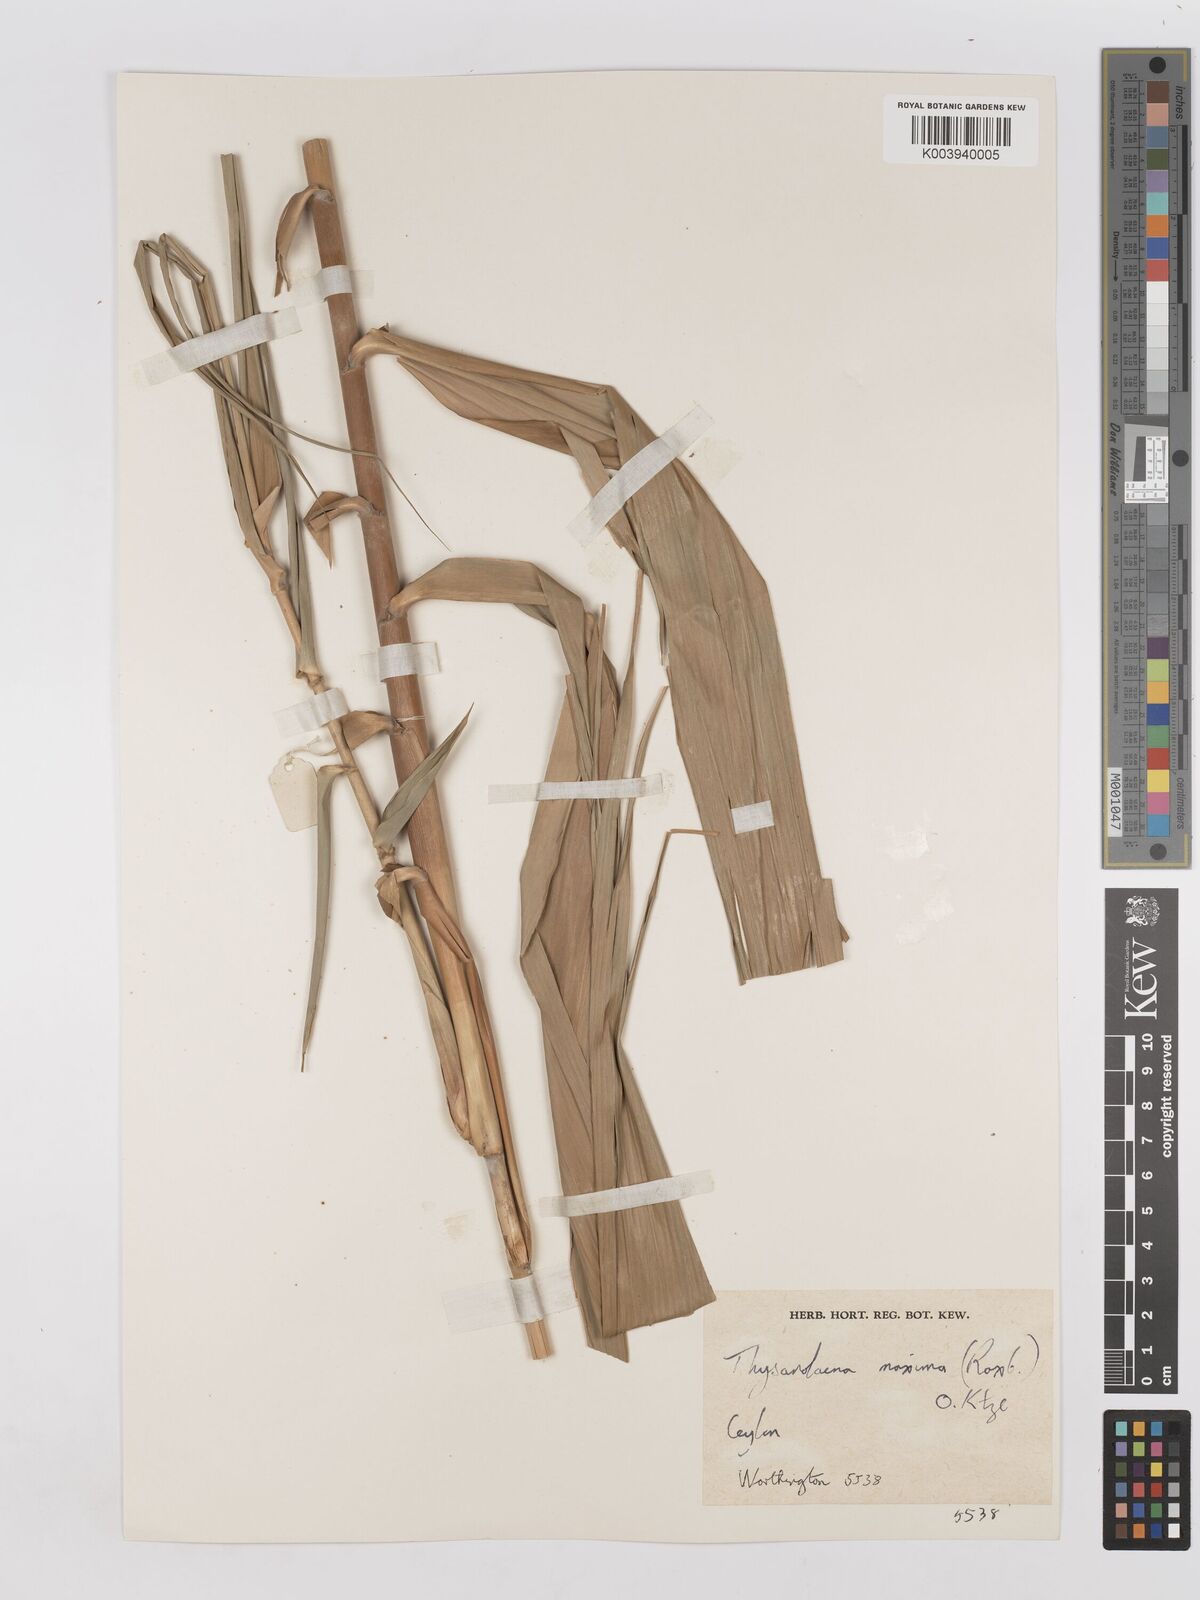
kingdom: Plantae
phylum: Tracheophyta
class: Liliopsida
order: Poales
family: Poaceae
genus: Thysanolaena
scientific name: Thysanolaena latifolia
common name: Tiger grass
